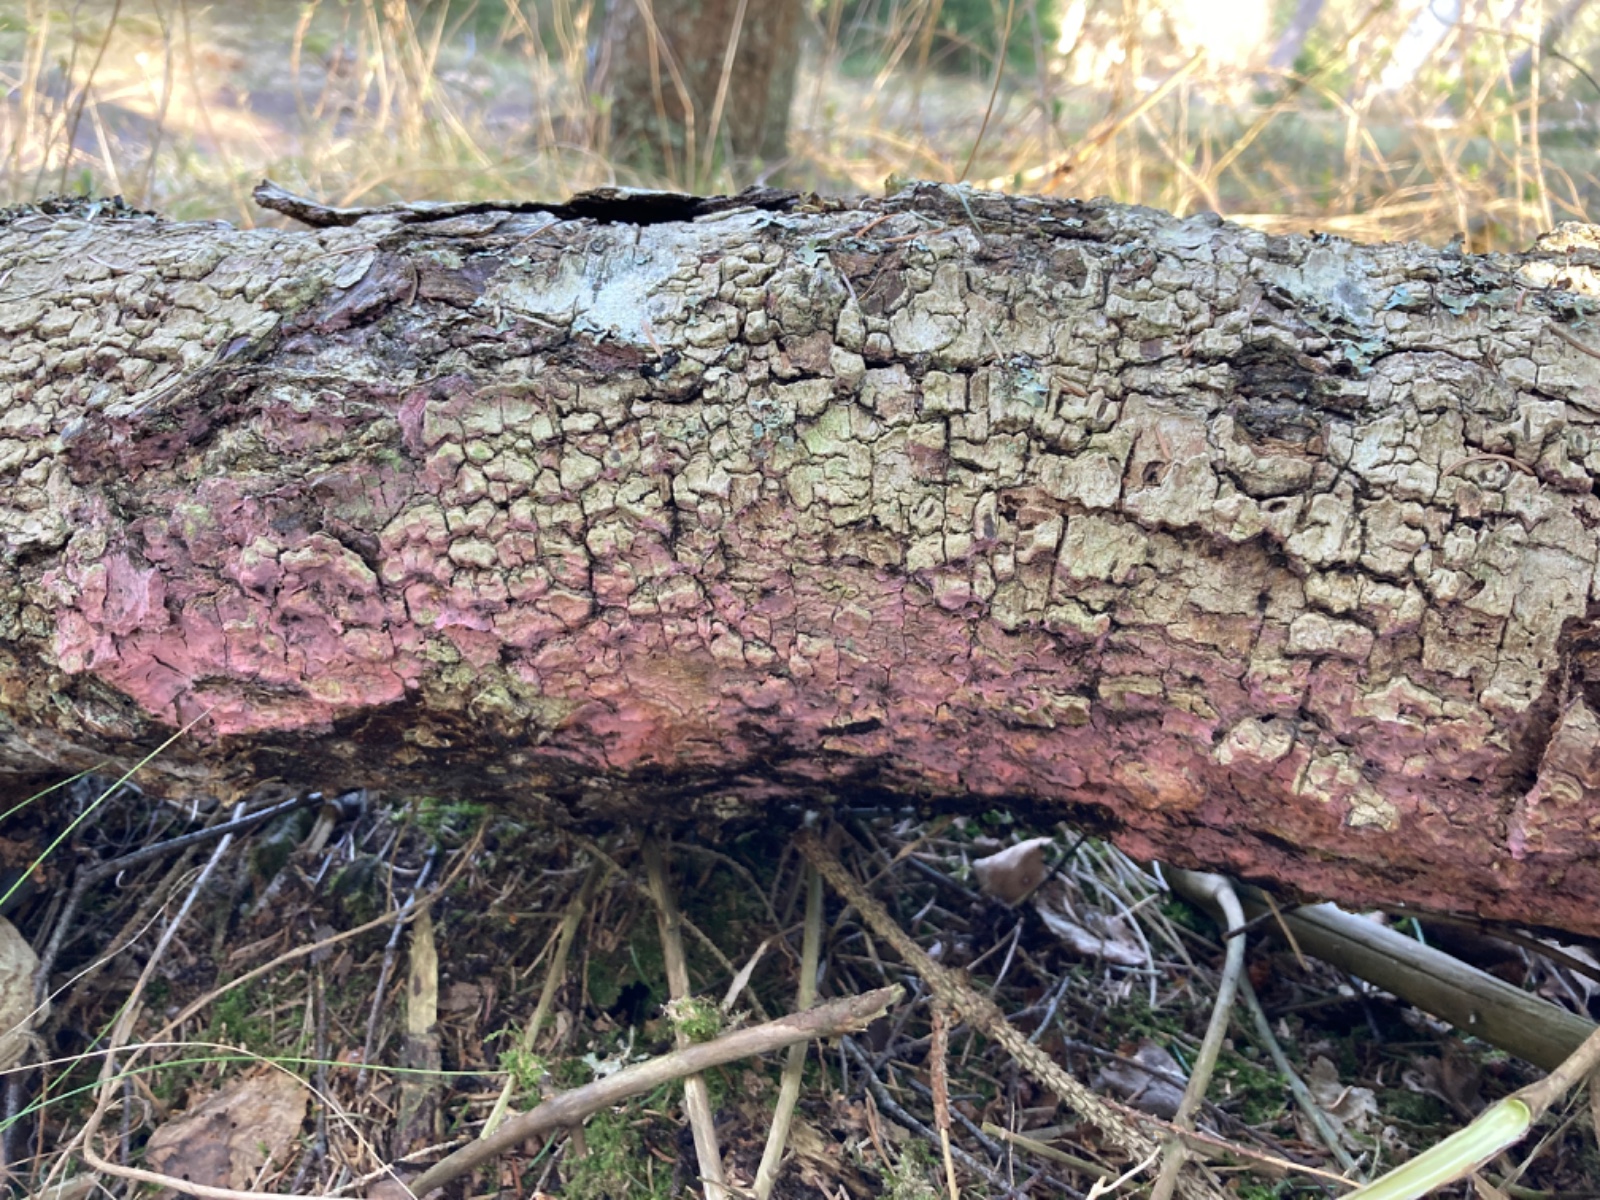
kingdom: Fungi
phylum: Basidiomycota
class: Agaricomycetes
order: Cantharellales
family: Tulasnellaceae
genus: Tulasnella
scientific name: Tulasnella violea
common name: violet ballonhinde
